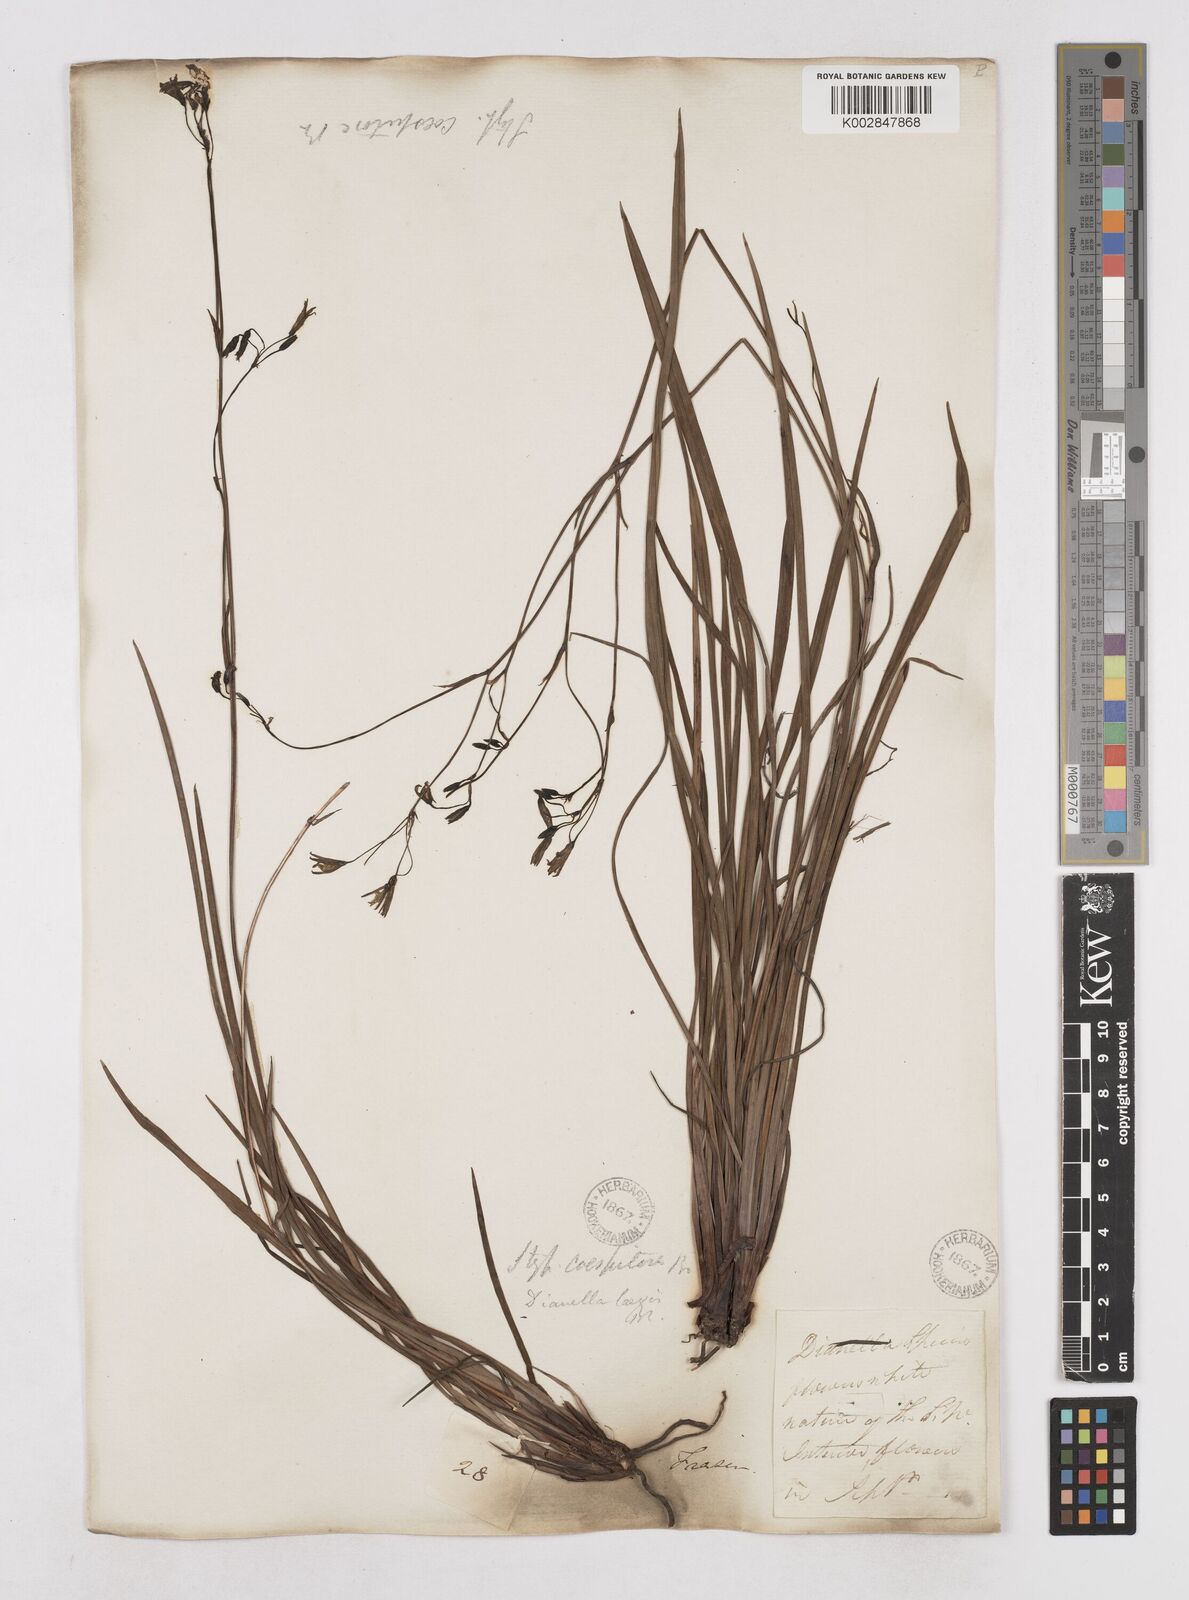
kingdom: Plantae
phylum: Tracheophyta
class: Liliopsida
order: Asparagales
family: Asphodelaceae
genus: Thelionema
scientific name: Thelionema caespitosum
